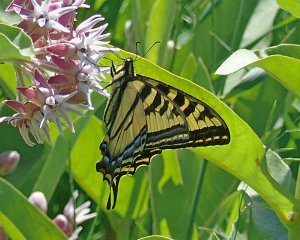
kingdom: Animalia
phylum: Arthropoda
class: Insecta
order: Lepidoptera
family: Papilionidae
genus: Pterourus
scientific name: Pterourus rutulus
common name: Western Tiger Swallowtail
